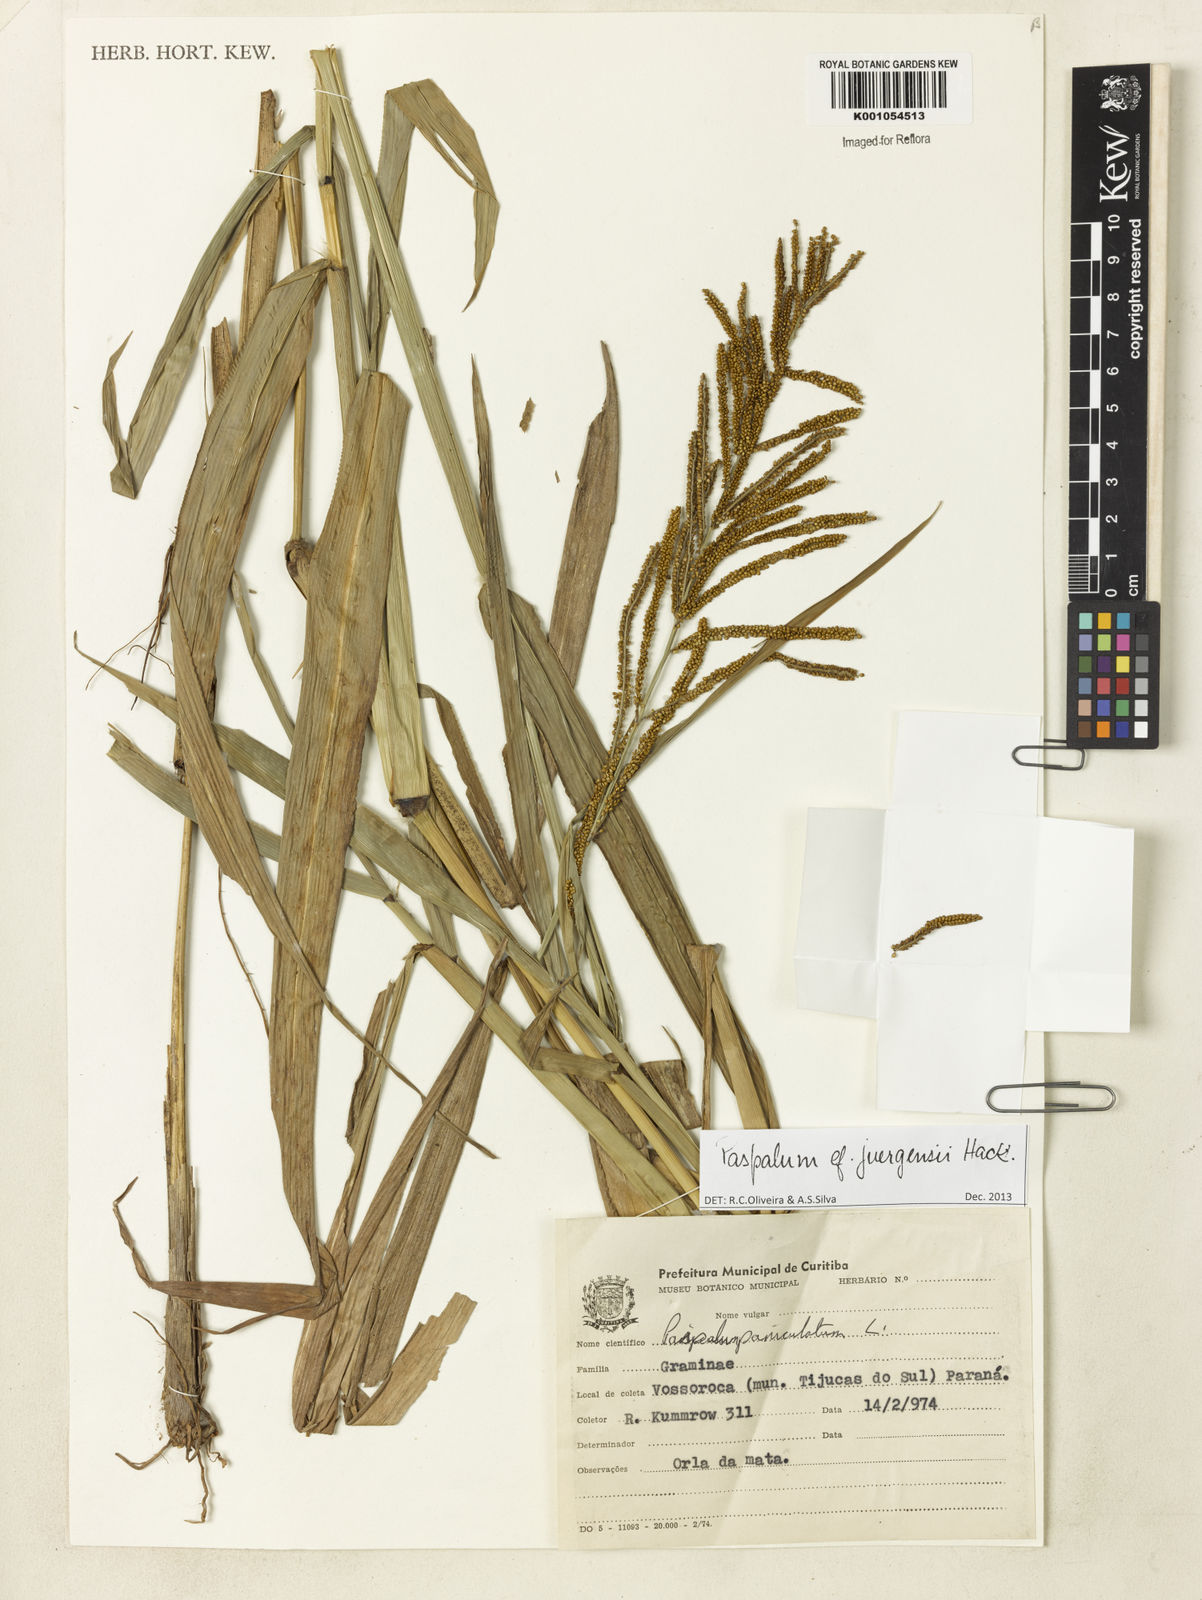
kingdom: Plantae
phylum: Tracheophyta
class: Liliopsida
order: Poales
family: Poaceae
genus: Paspalum
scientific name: Paspalum juergensii
